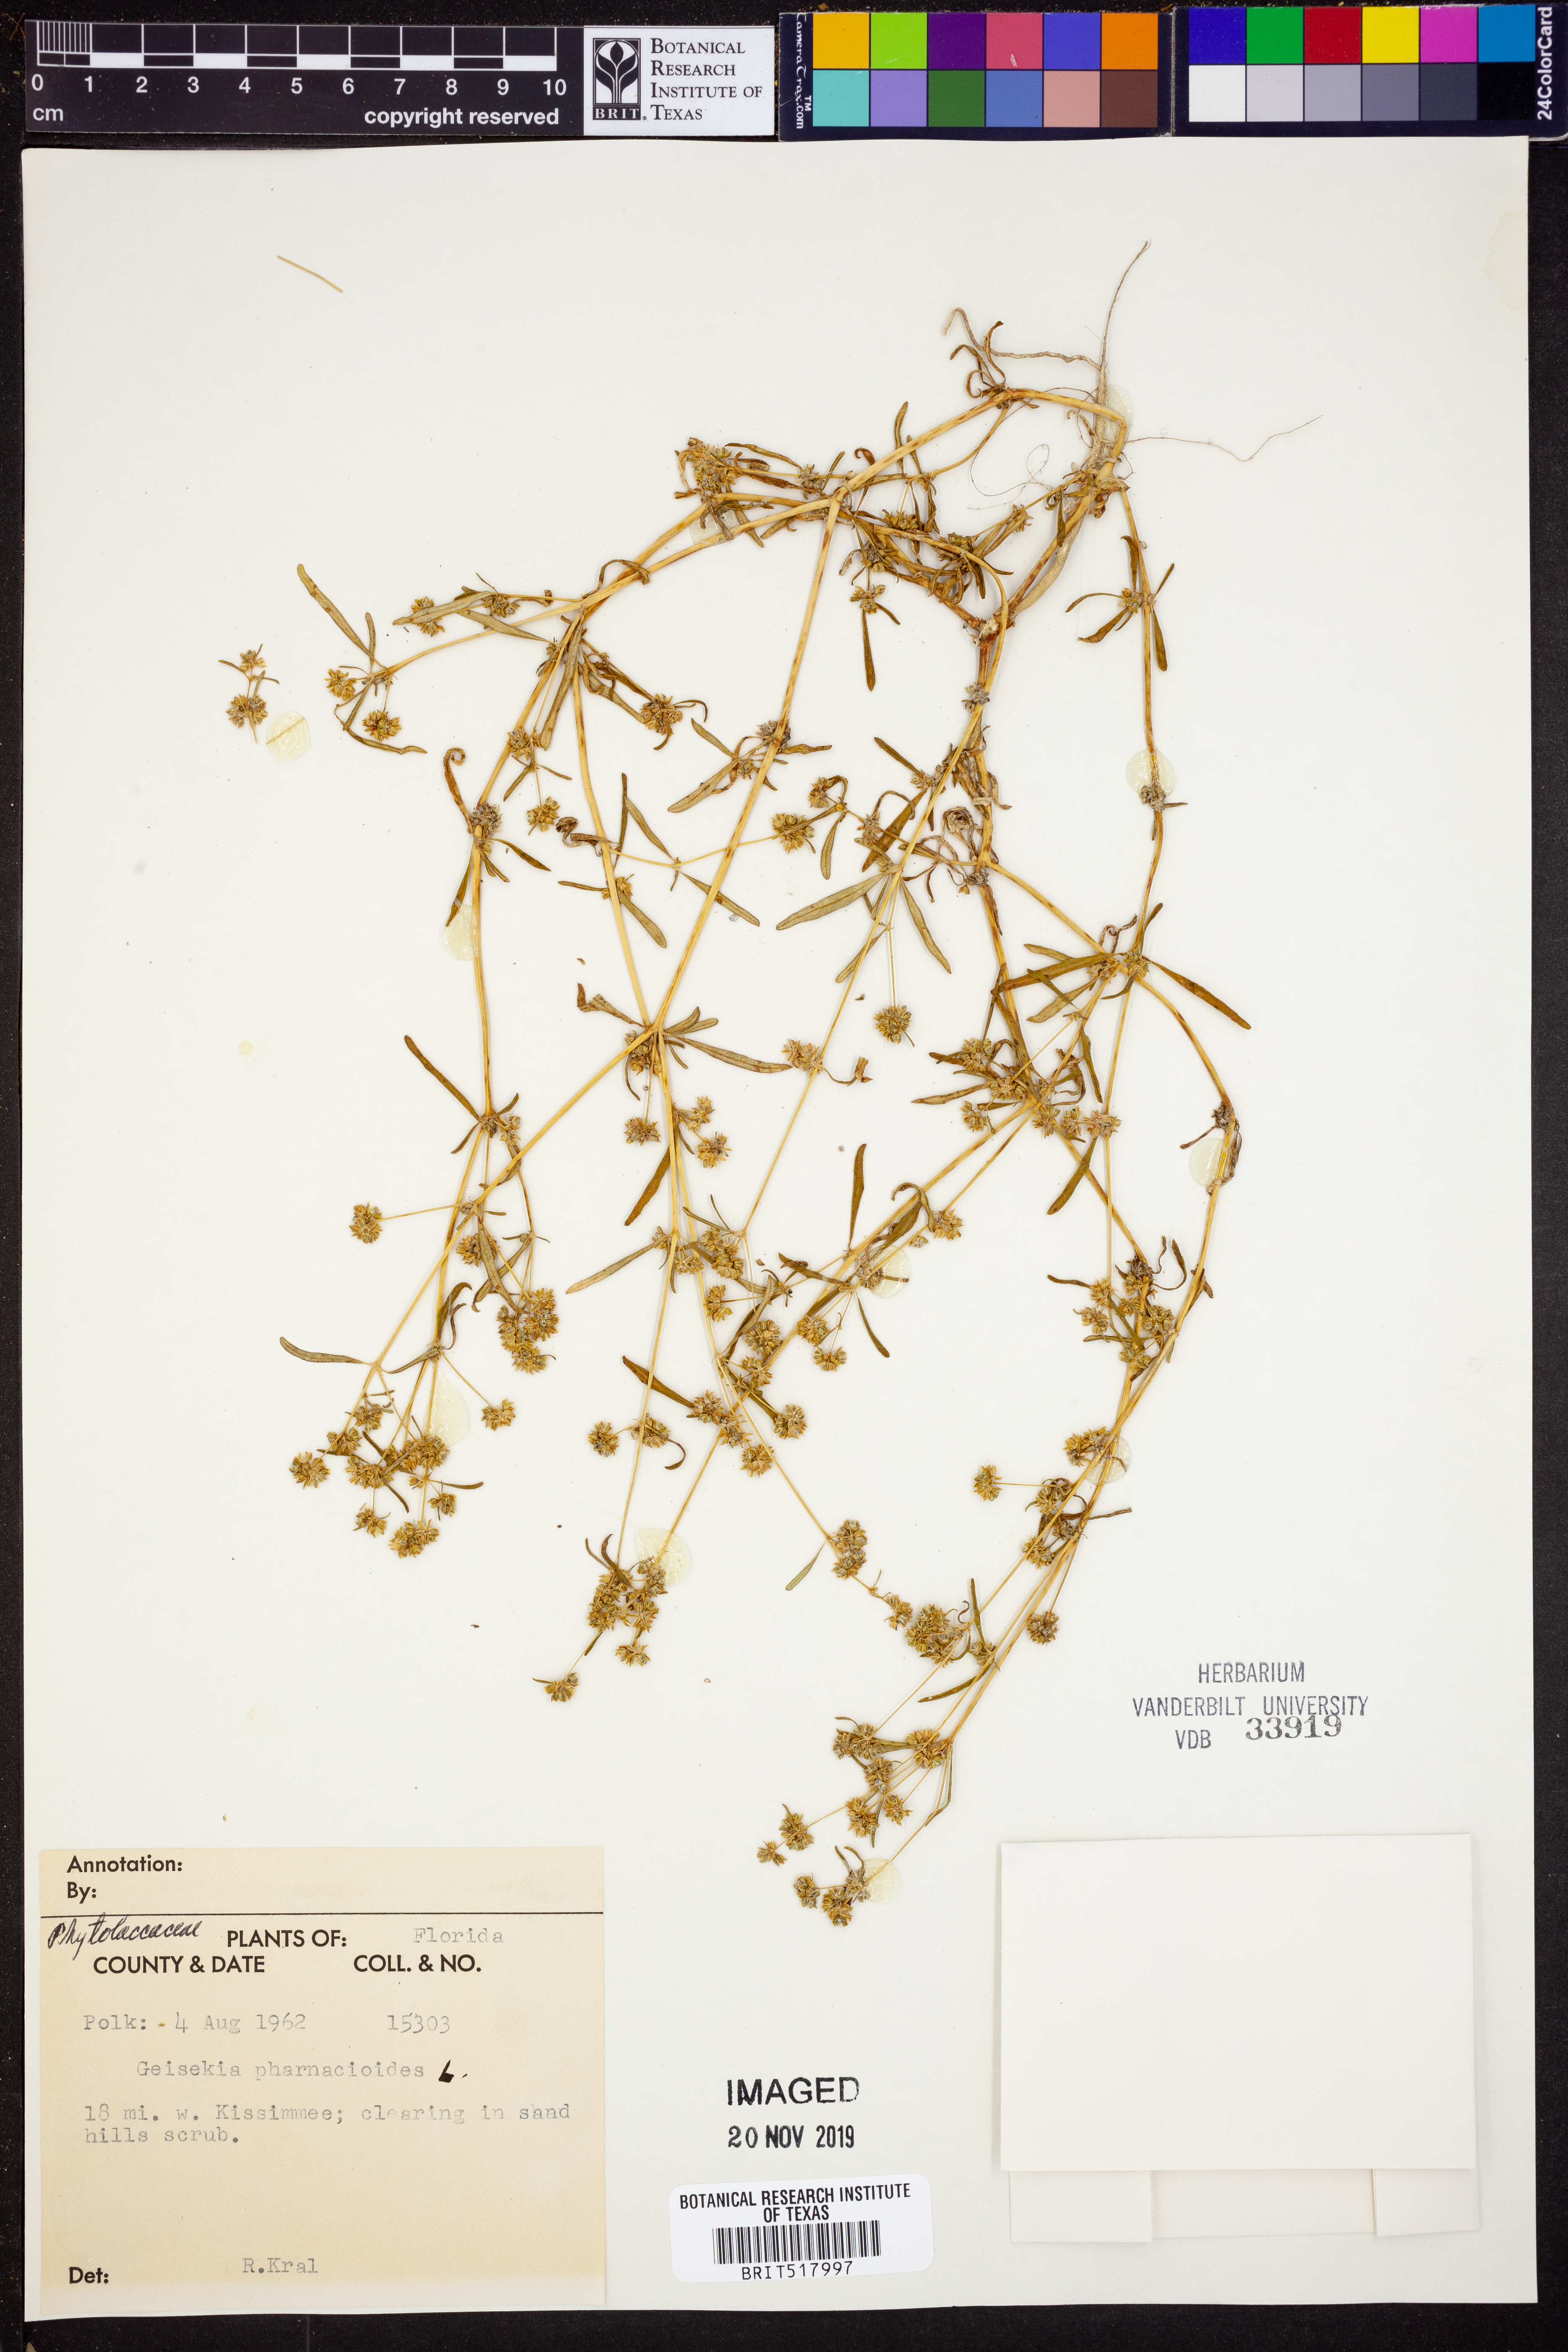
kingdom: Plantae
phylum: Tracheophyta
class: Magnoliopsida
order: Caryophyllales
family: Gisekiaceae
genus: Gisekia
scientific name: Gisekia
